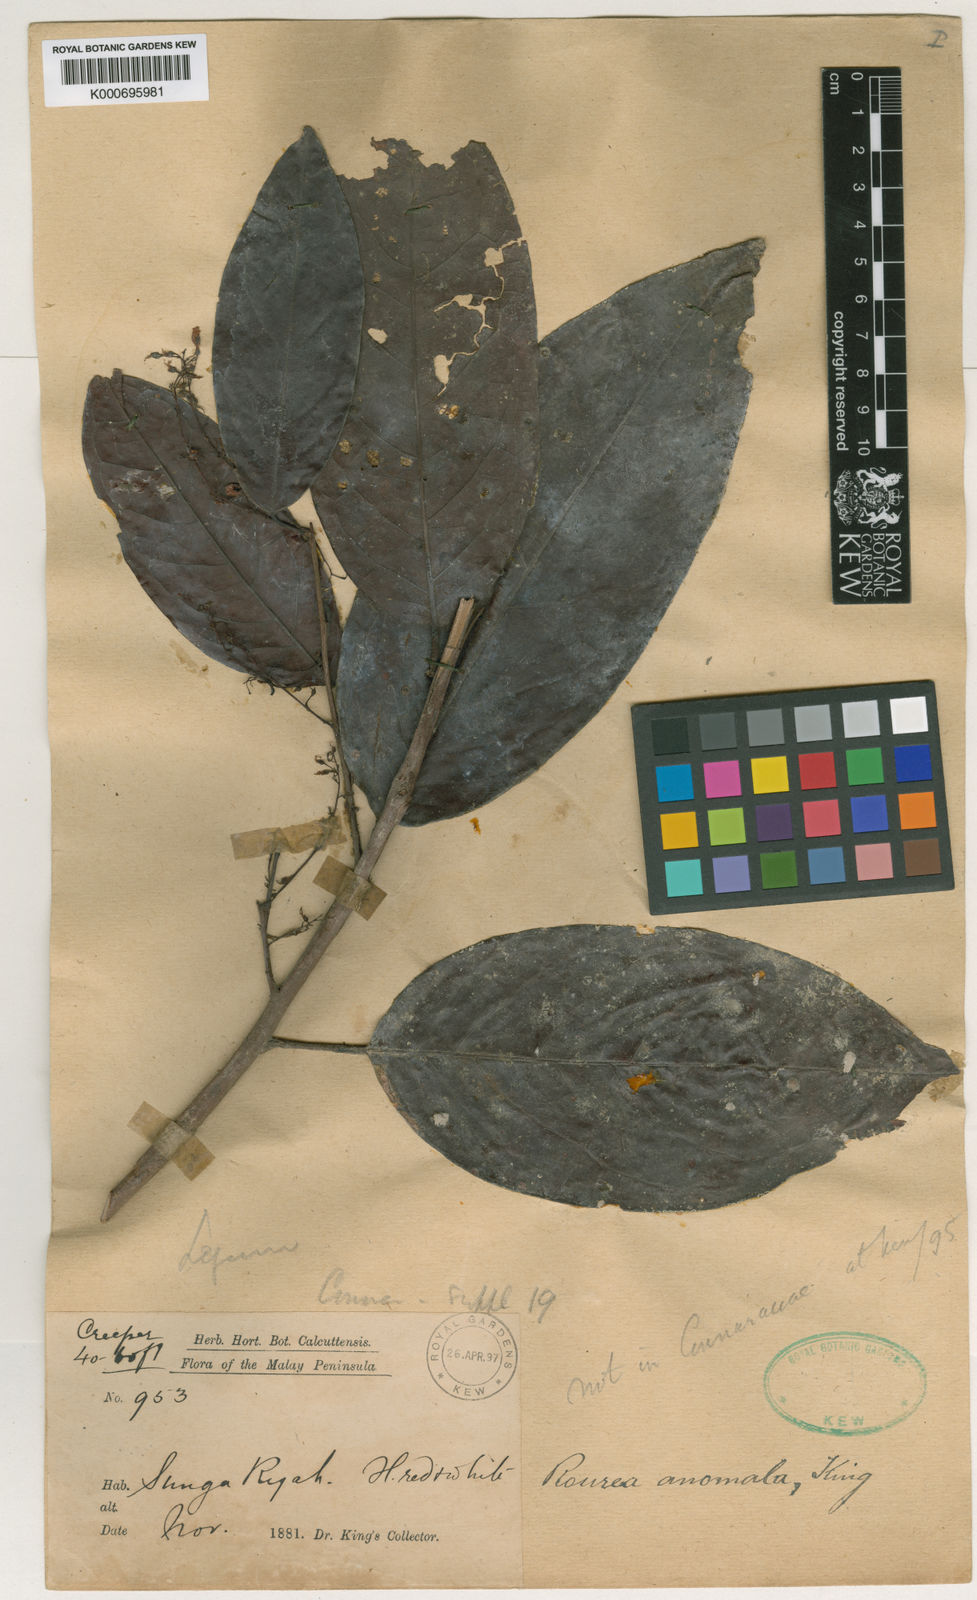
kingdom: Plantae
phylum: Tracheophyta
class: Magnoliopsida
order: Oxalidales
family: Connaraceae
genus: Rourea
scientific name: Rourea
